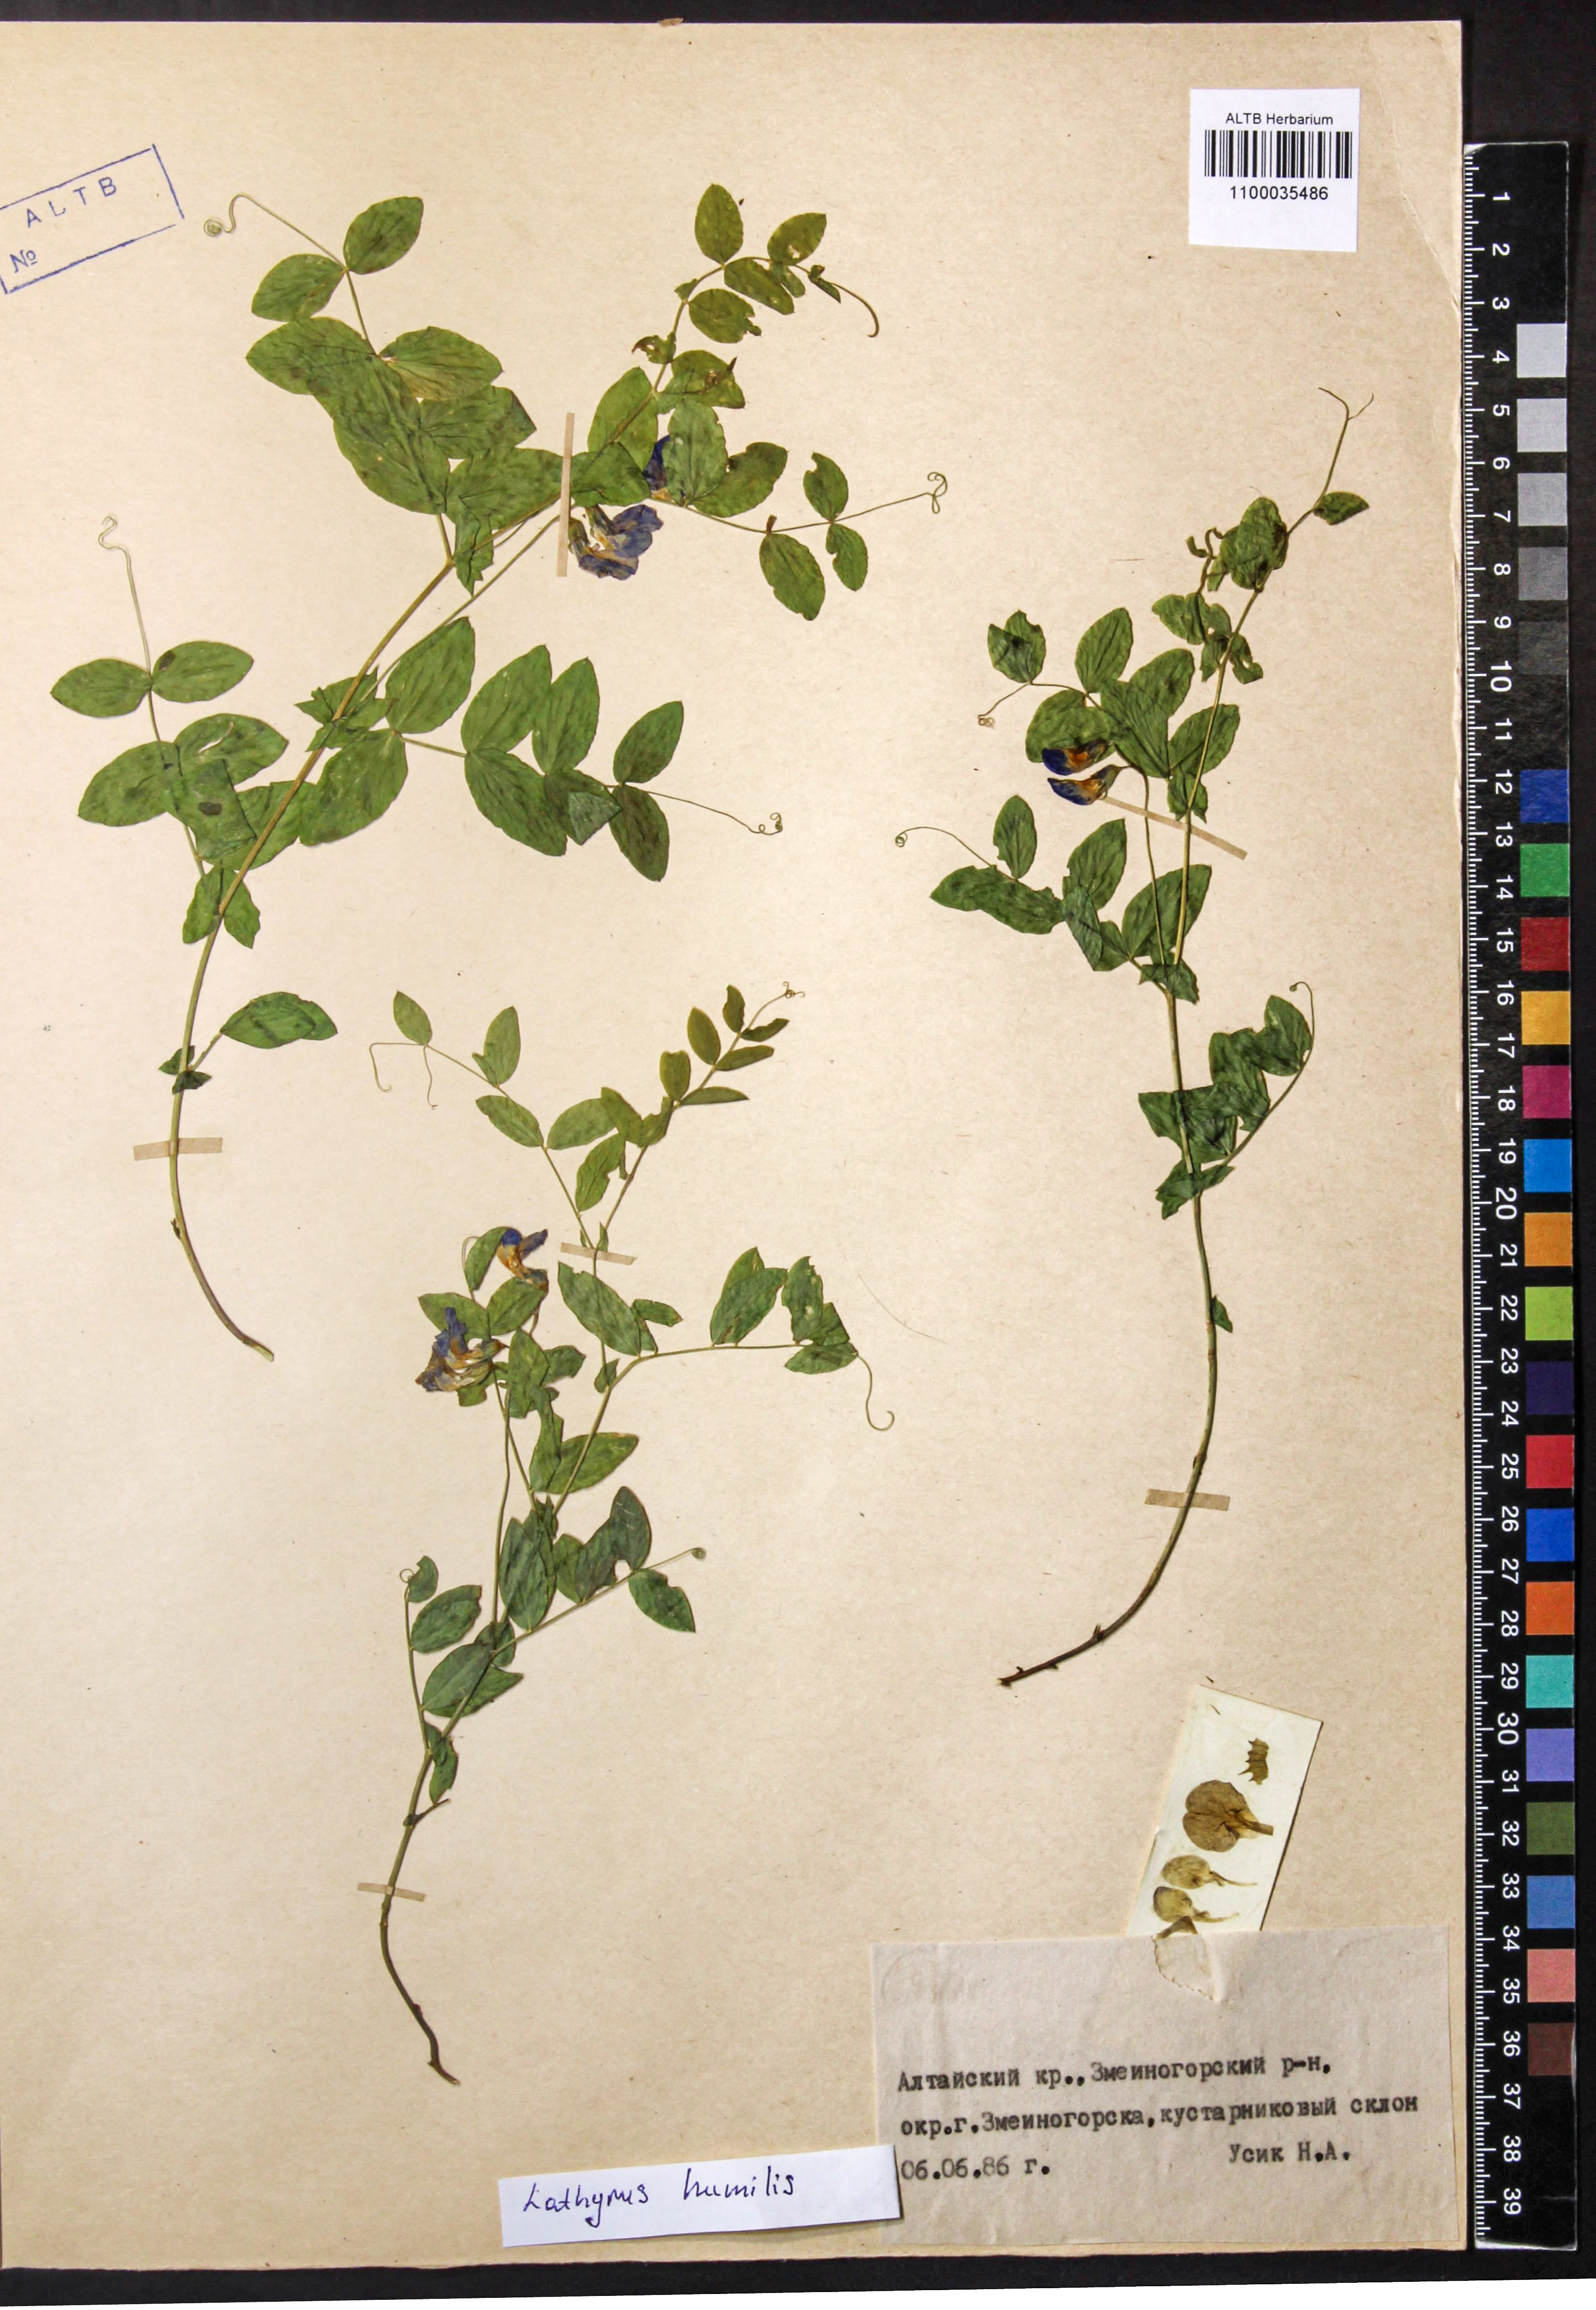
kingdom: Plantae
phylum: Tracheophyta
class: Magnoliopsida
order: Fabales
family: Fabaceae
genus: Lathyrus
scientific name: Lathyrus humilis
